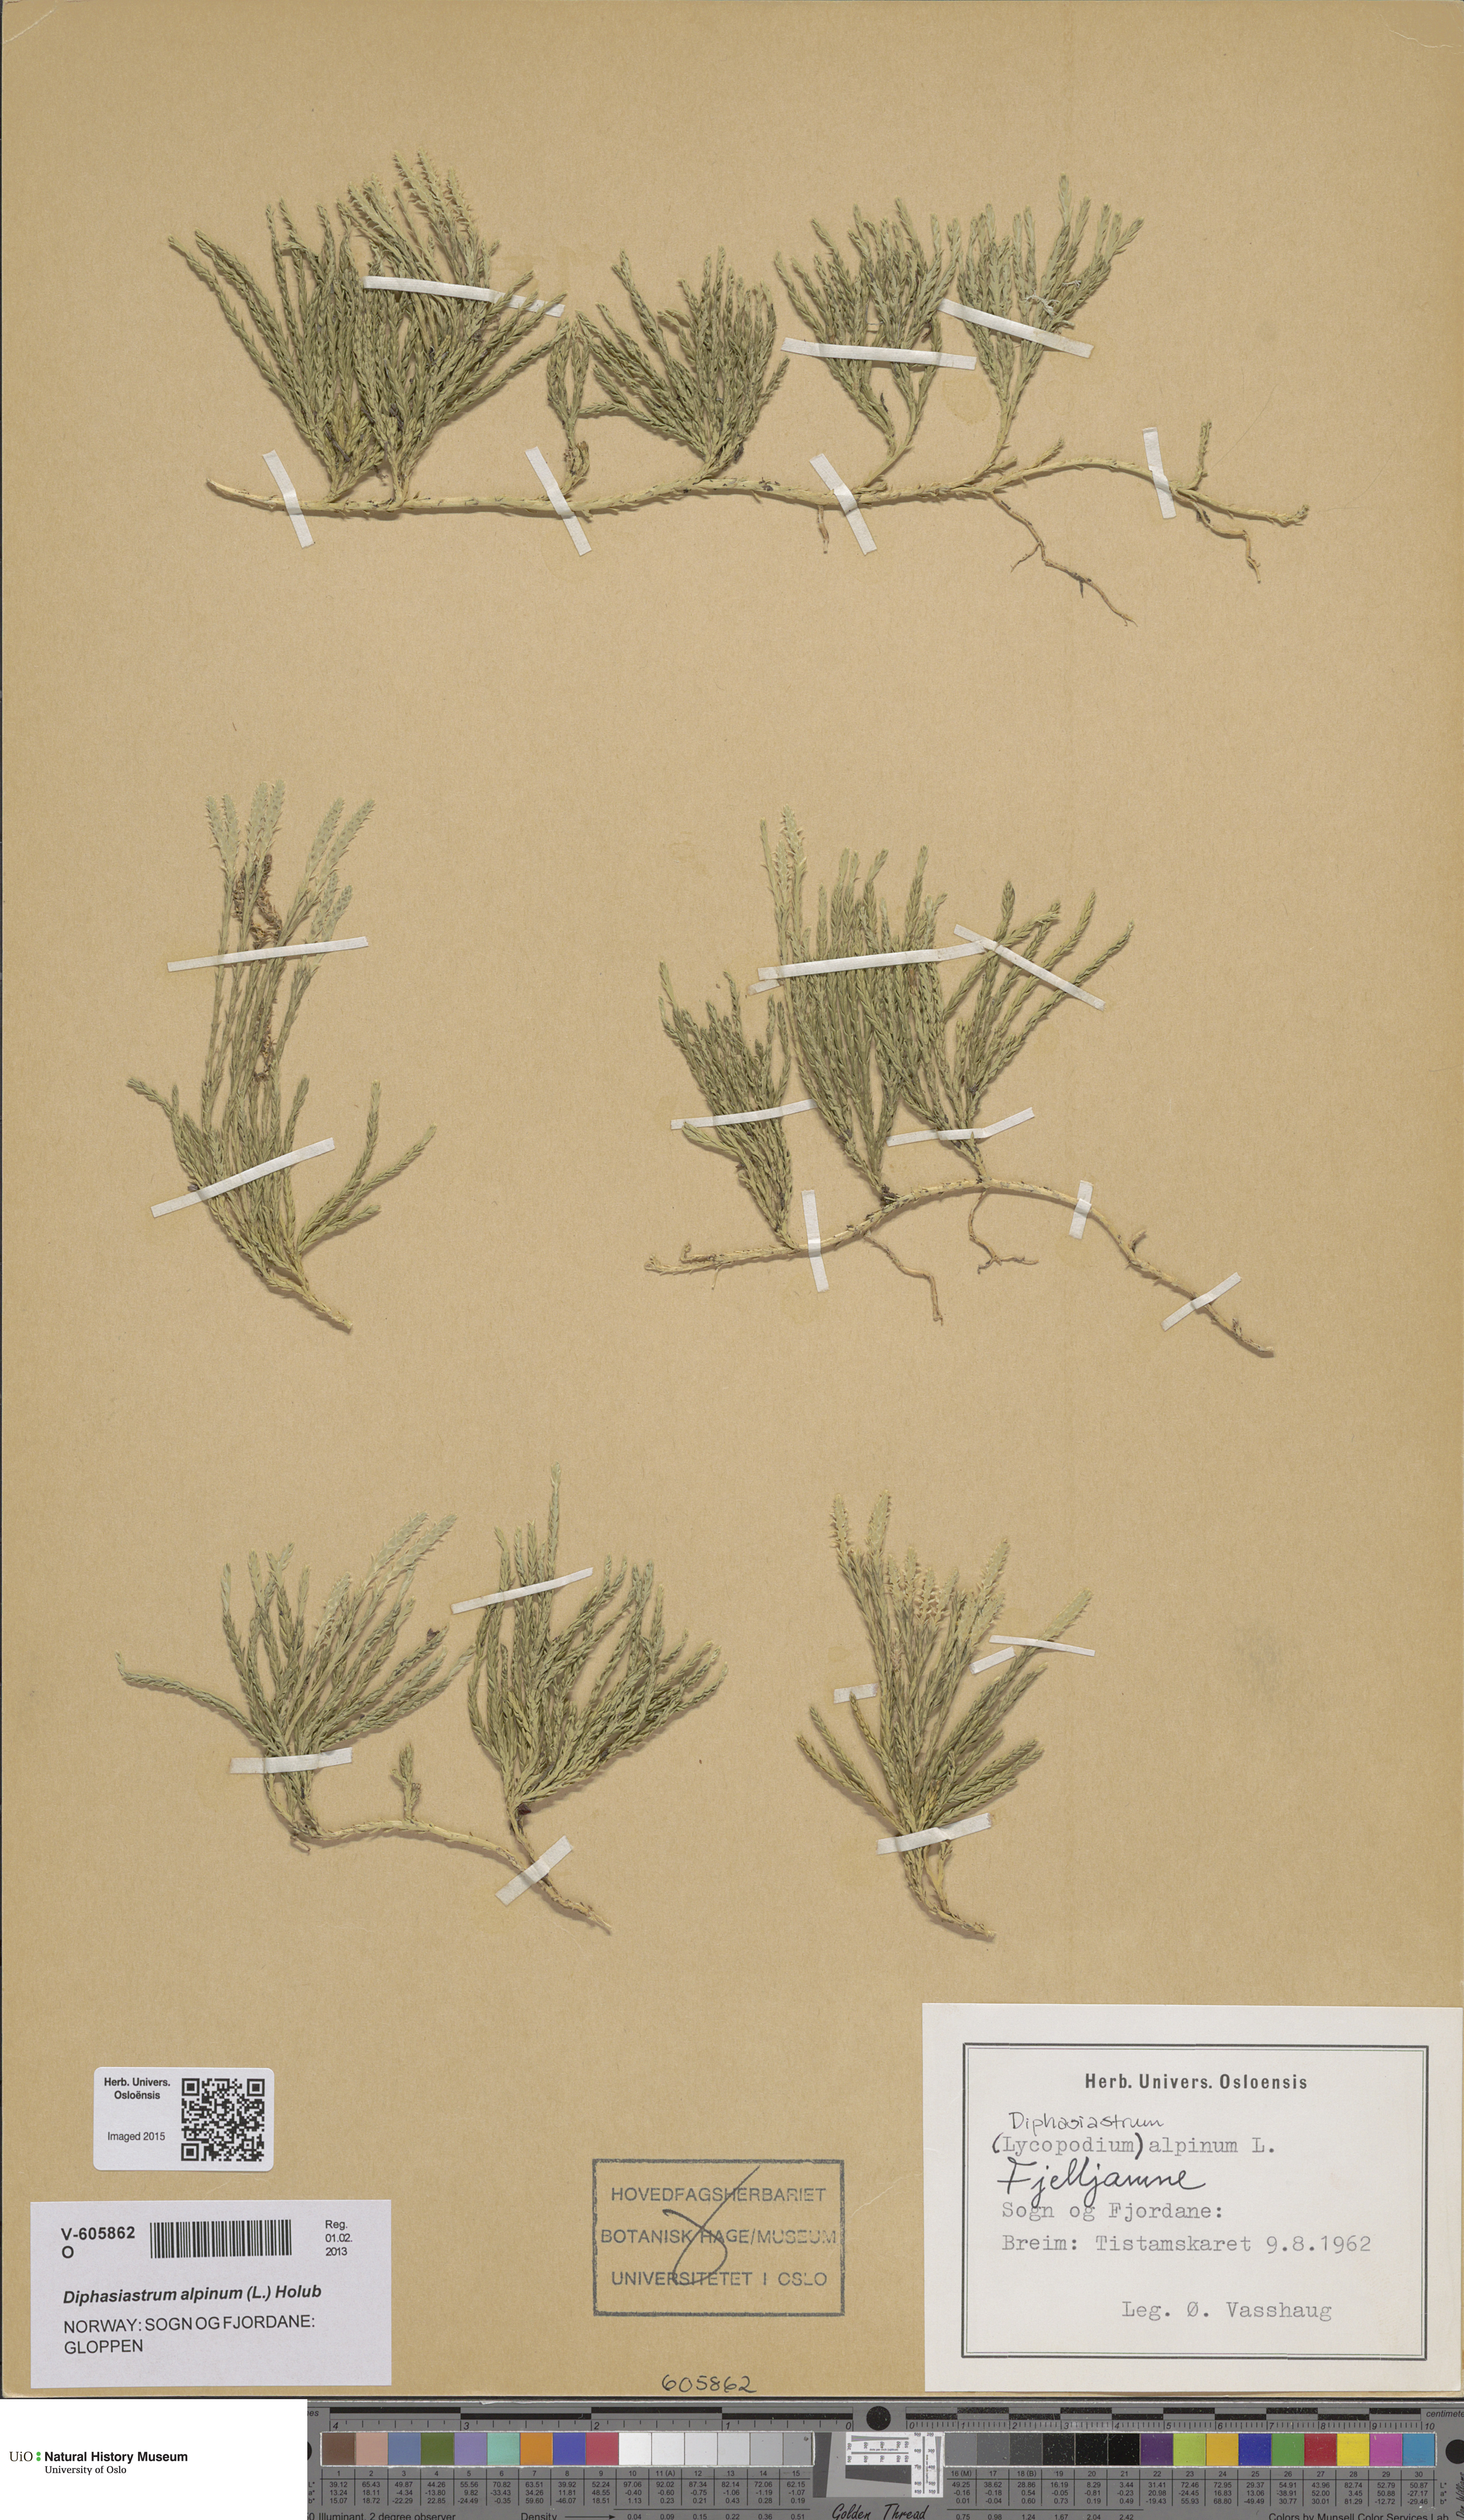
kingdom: Plantae
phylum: Tracheophyta
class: Lycopodiopsida
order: Lycopodiales
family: Lycopodiaceae
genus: Diphasiastrum
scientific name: Diphasiastrum alpinum
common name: Alpine clubmoss
